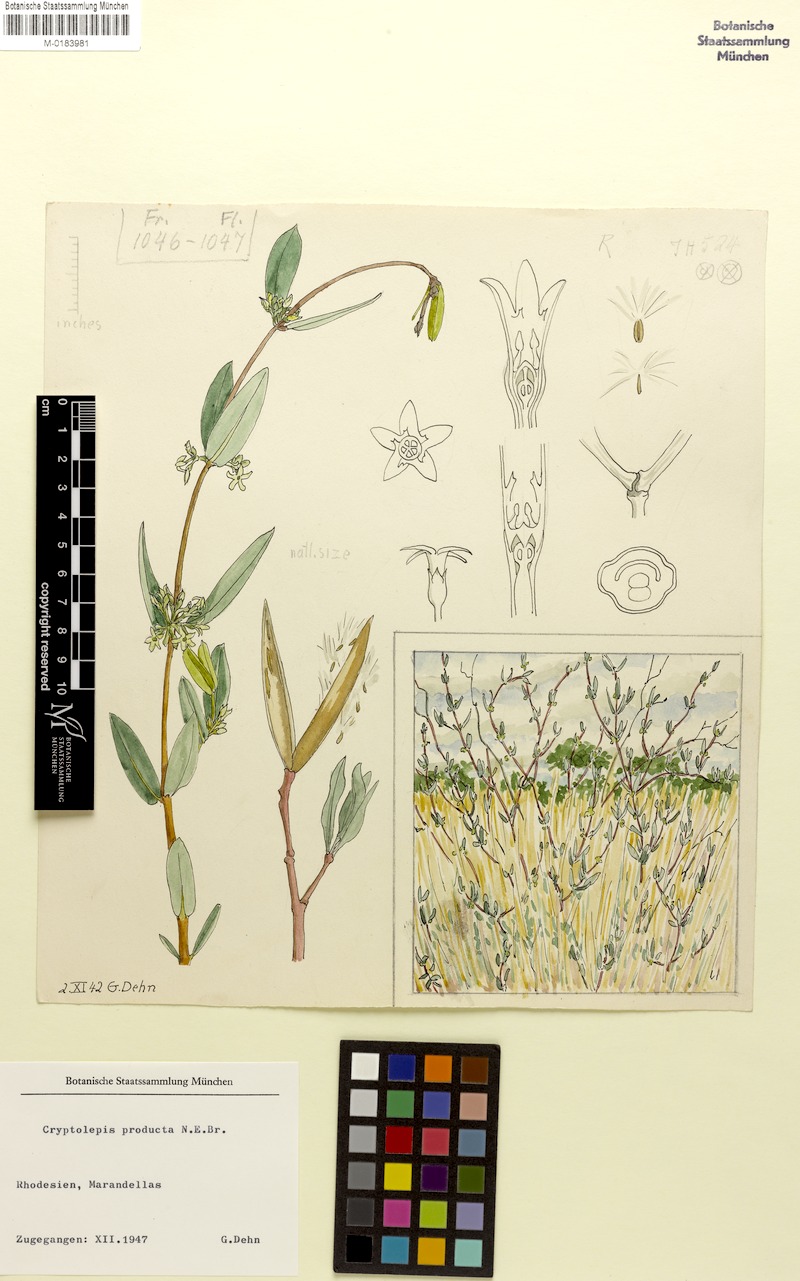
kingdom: Plantae
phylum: Tracheophyta
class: Magnoliopsida
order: Gentianales
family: Apocynaceae
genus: Cryptolepis
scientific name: Cryptolepis oblongifolia
